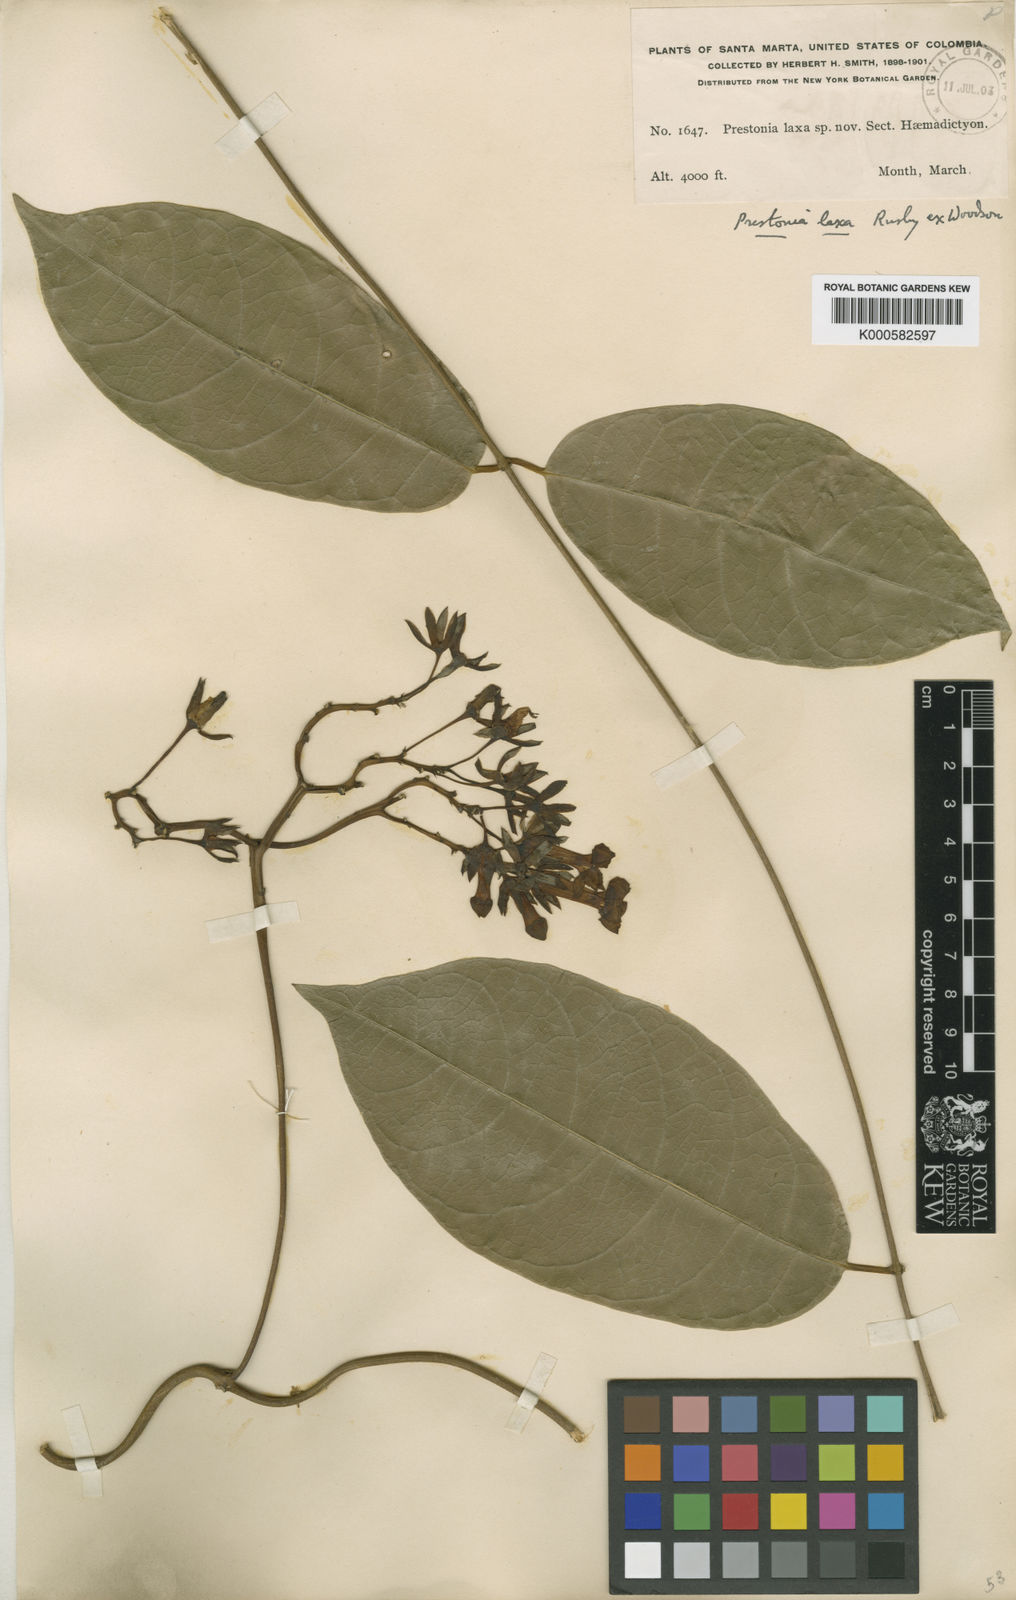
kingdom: Plantae
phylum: Tracheophyta
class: Magnoliopsida
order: Gentianales
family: Apocynaceae
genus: Prestonia
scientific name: Prestonia portobellensis
